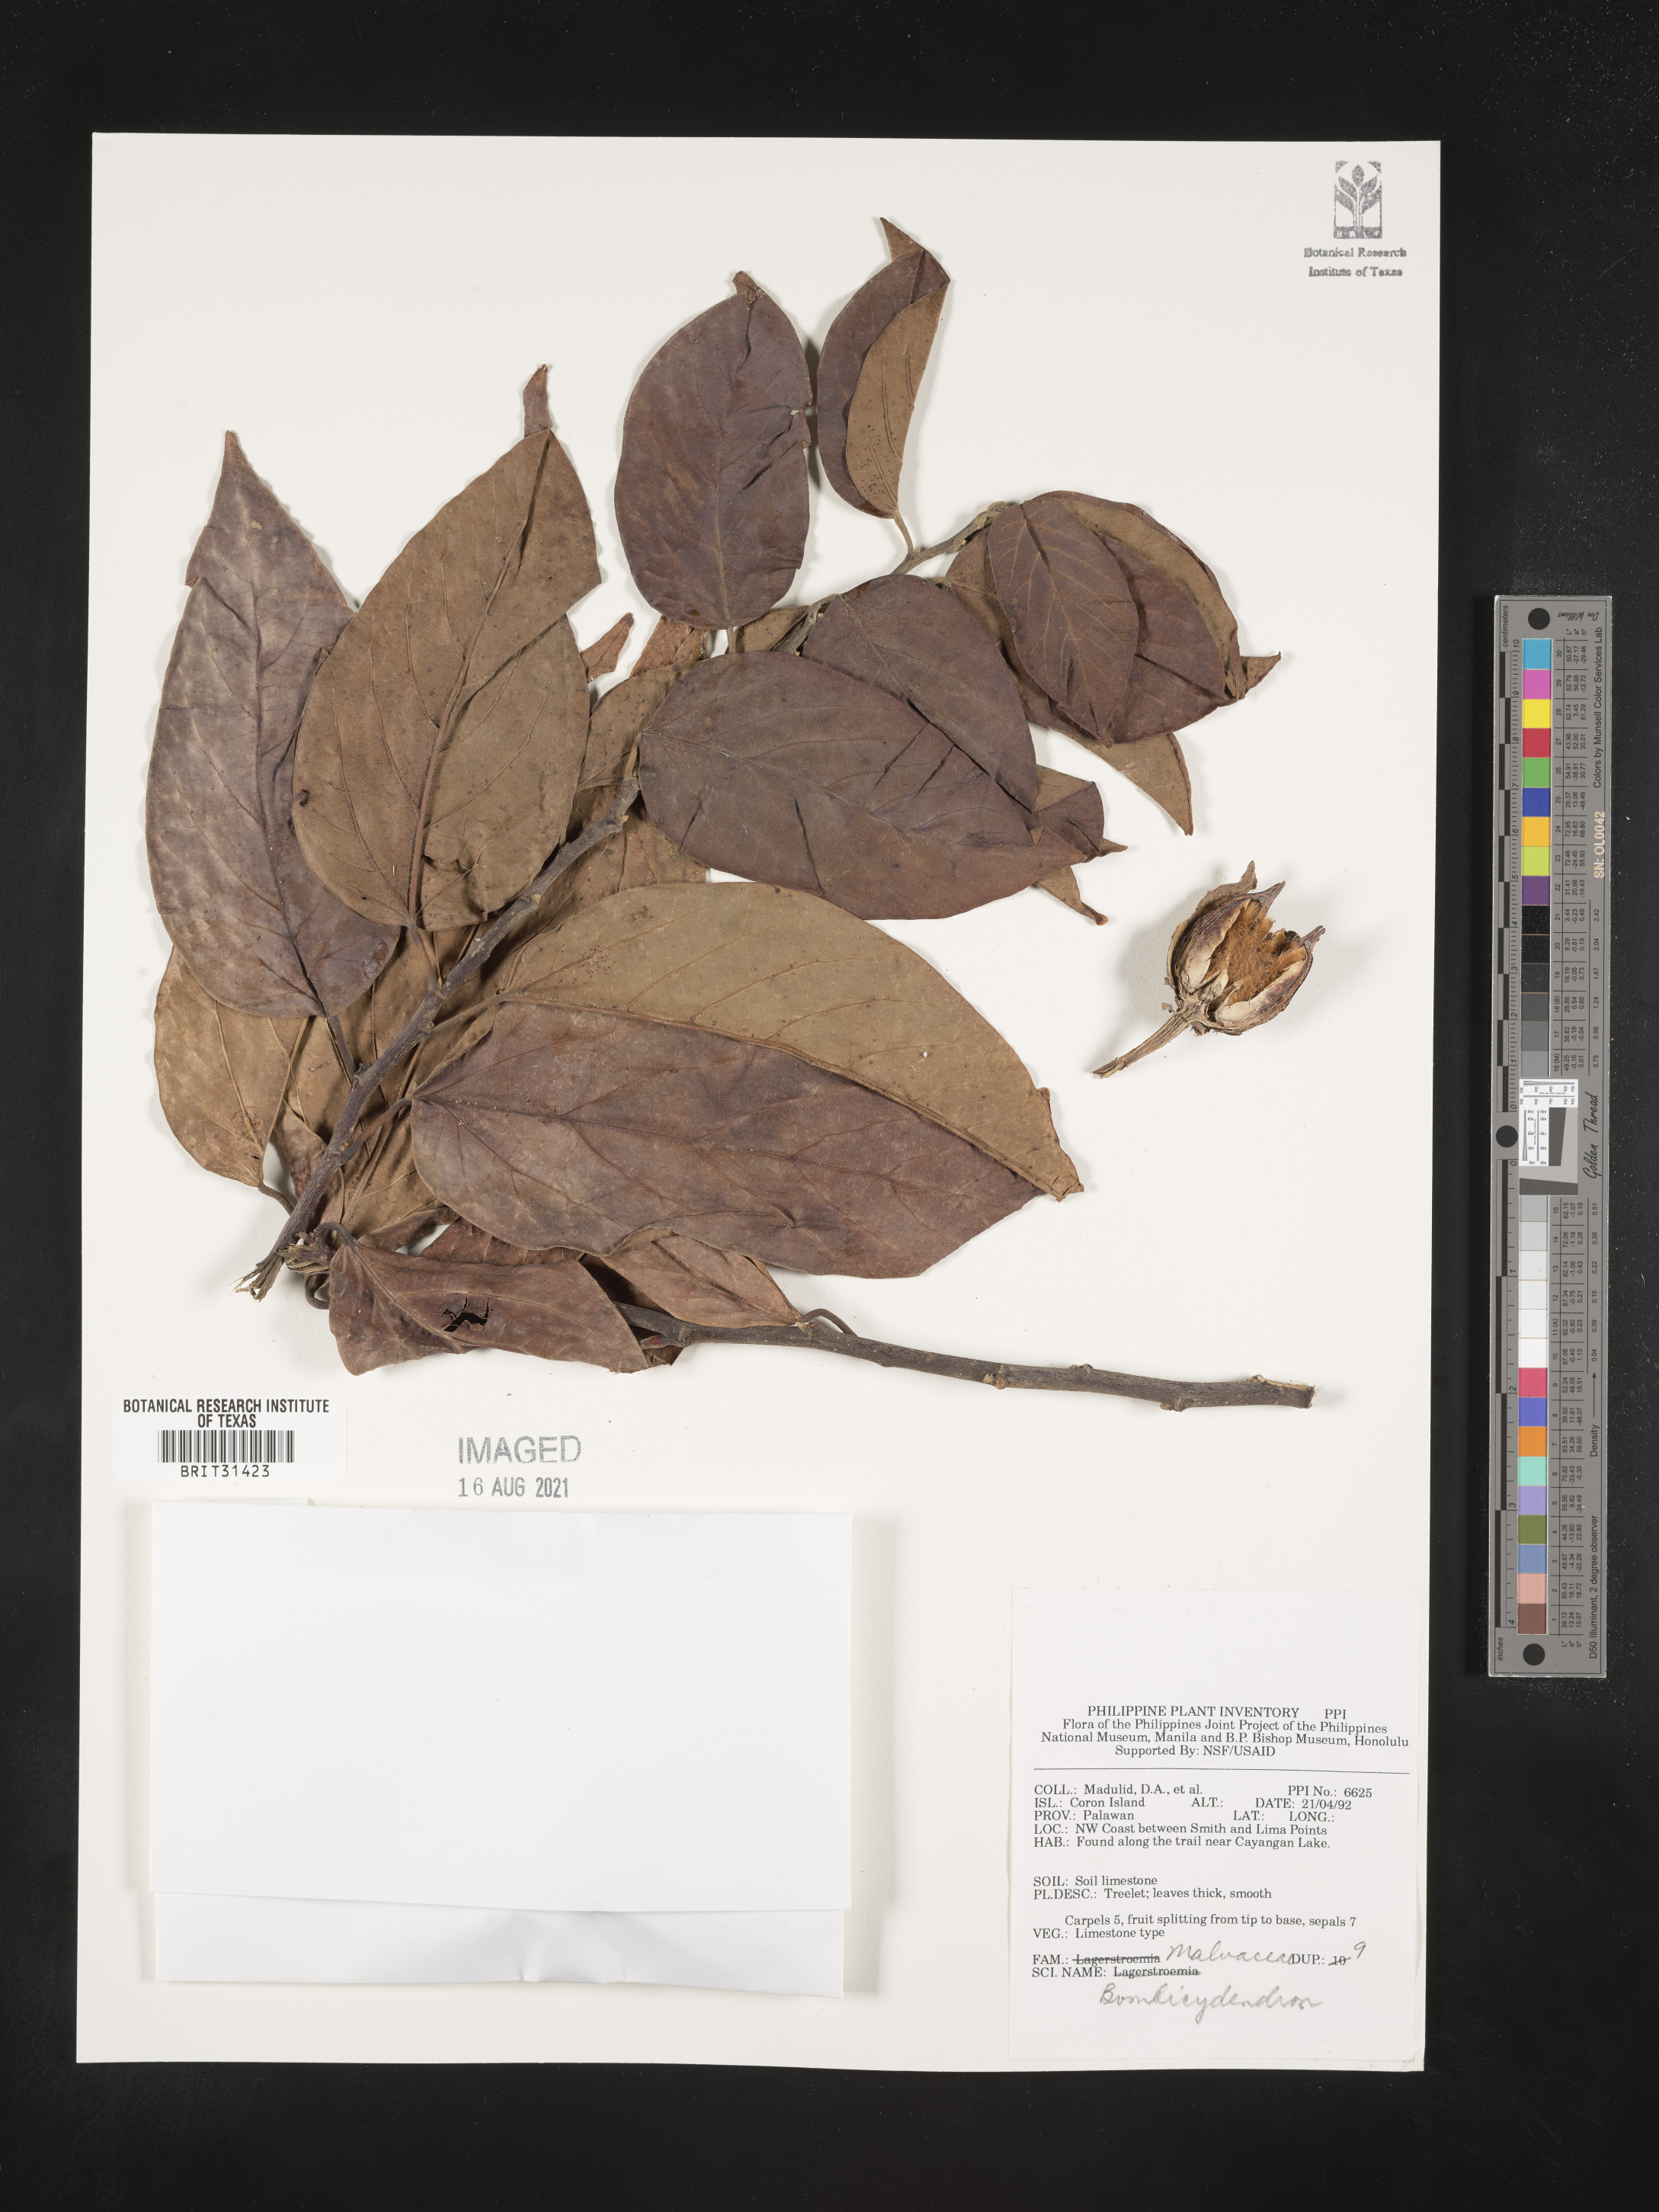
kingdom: Plantae
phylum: Tracheophyta
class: Magnoliopsida
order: Malvales
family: Malvaceae
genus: Bombycidendron
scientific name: Bombycidendron
